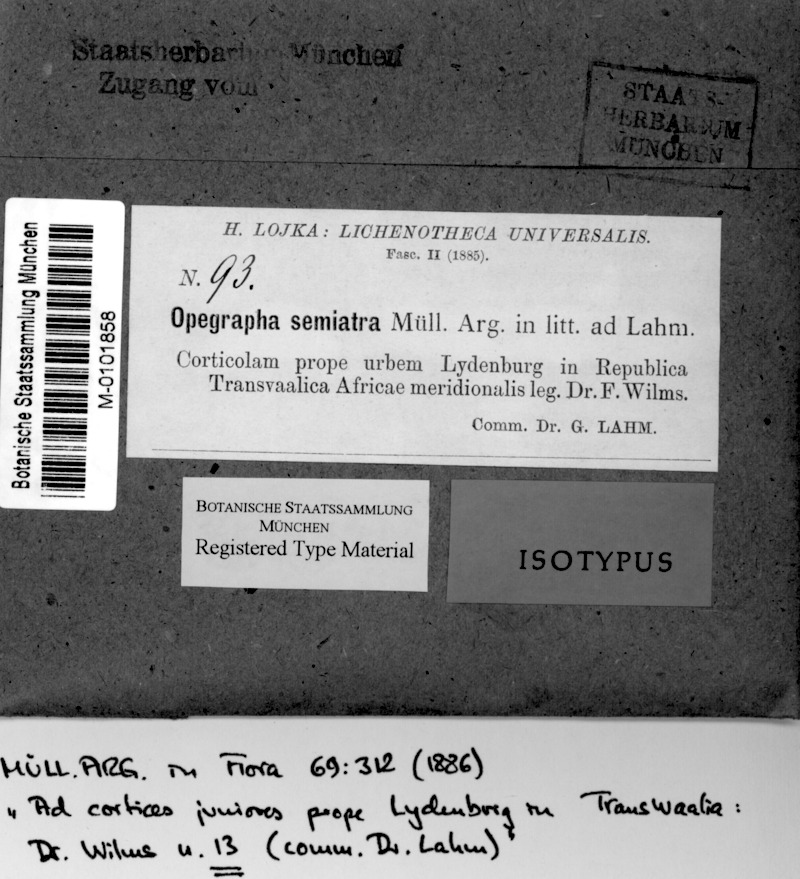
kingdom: Fungi
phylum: Ascomycota
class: Arthoniomycetes
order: Arthoniales
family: Opegraphaceae
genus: Opegrapha
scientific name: Opegrapha
